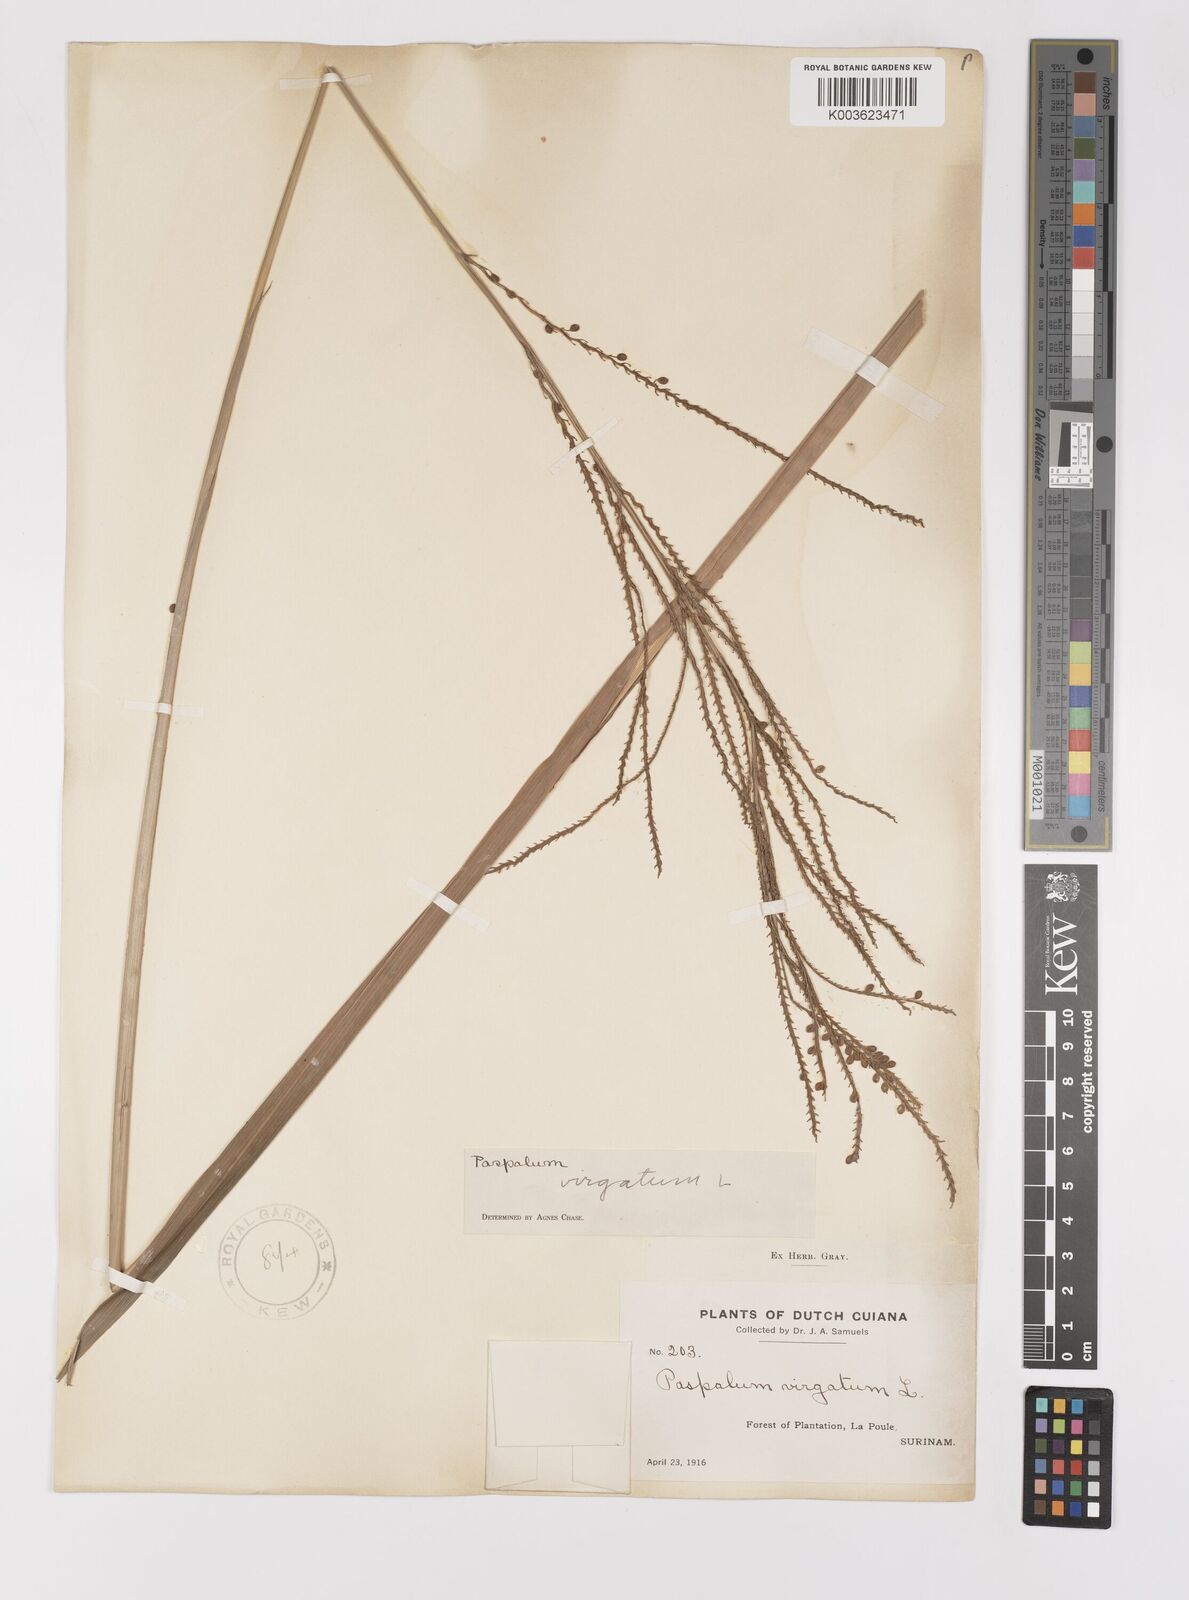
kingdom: Plantae
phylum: Tracheophyta
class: Liliopsida
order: Poales
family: Poaceae
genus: Paspalum
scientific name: Paspalum virgatum
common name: Talquezal
